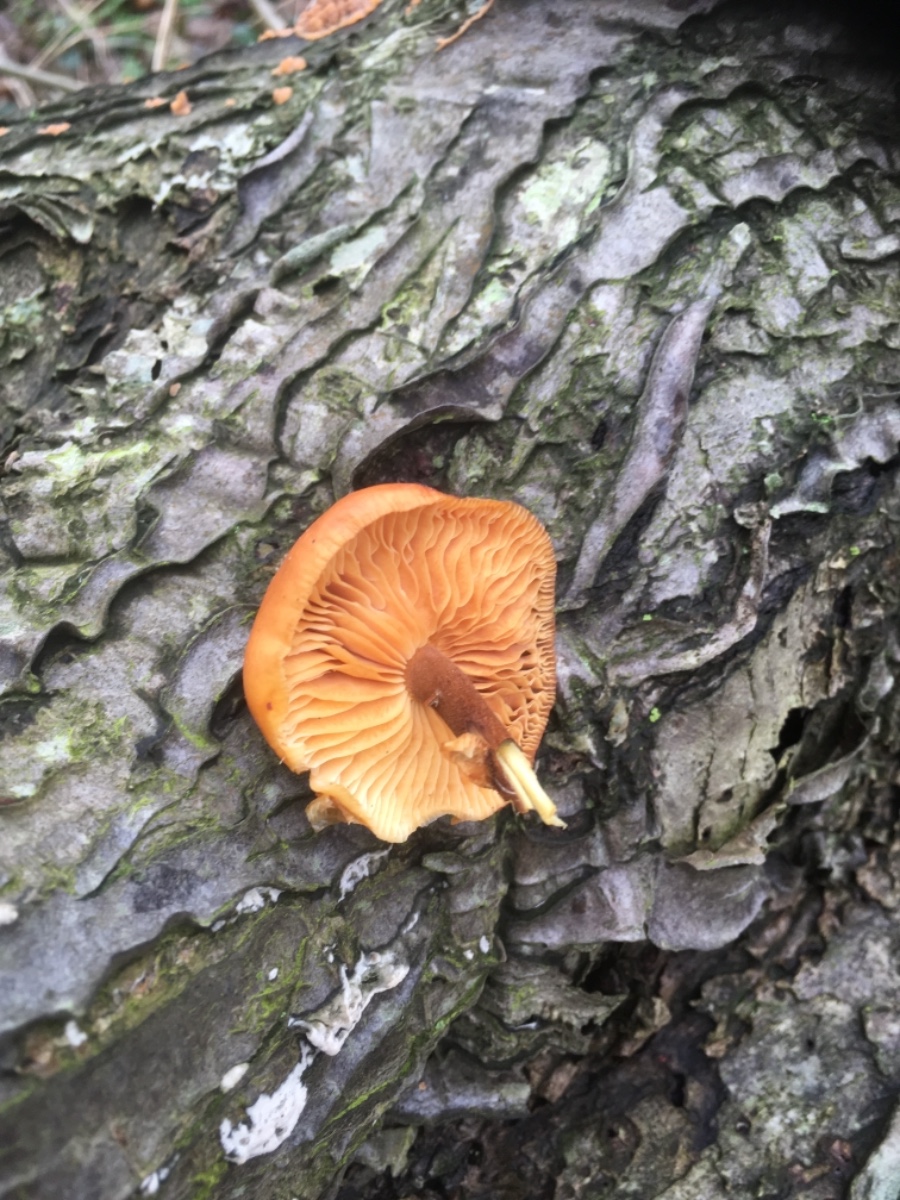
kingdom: Fungi
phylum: Basidiomycota
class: Agaricomycetes
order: Agaricales
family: Physalacriaceae
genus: Flammulina
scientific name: Flammulina velutipes
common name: gul fløjlsfod
